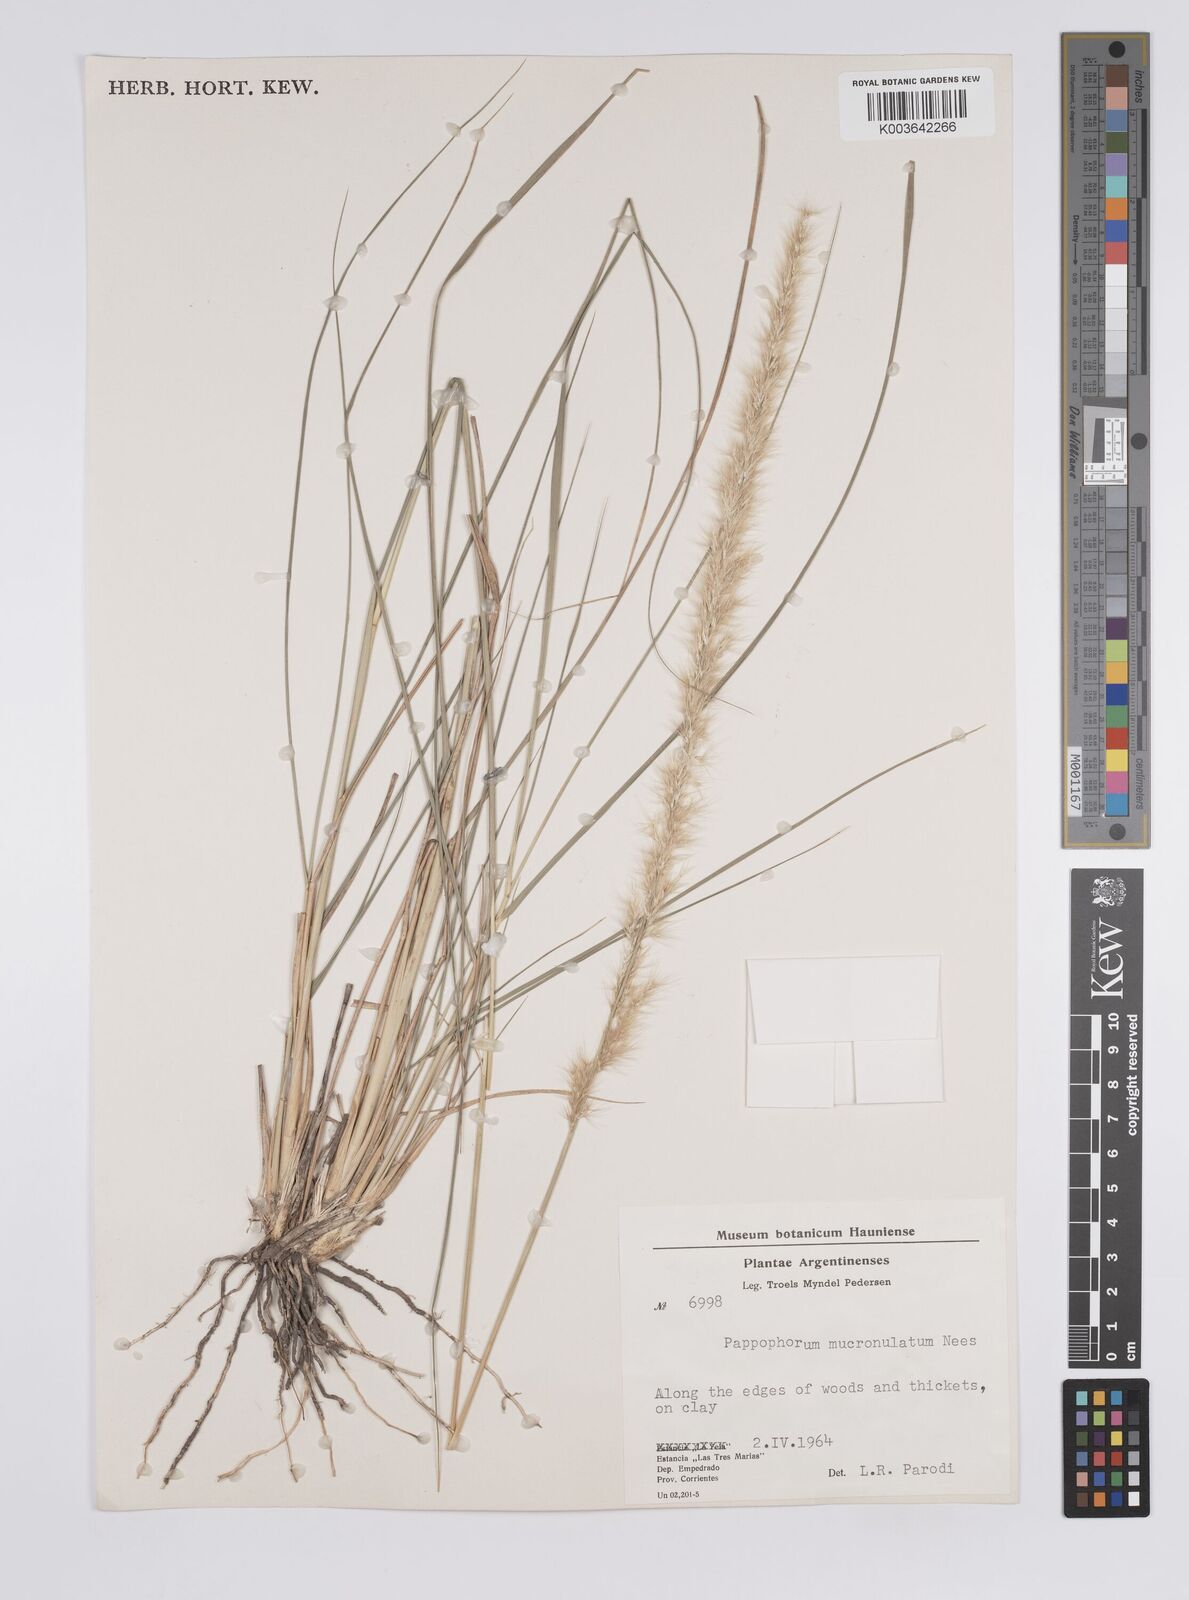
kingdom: Plantae
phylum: Tracheophyta
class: Liliopsida
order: Poales
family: Poaceae
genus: Pappophorum
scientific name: Pappophorum krapovickasii
